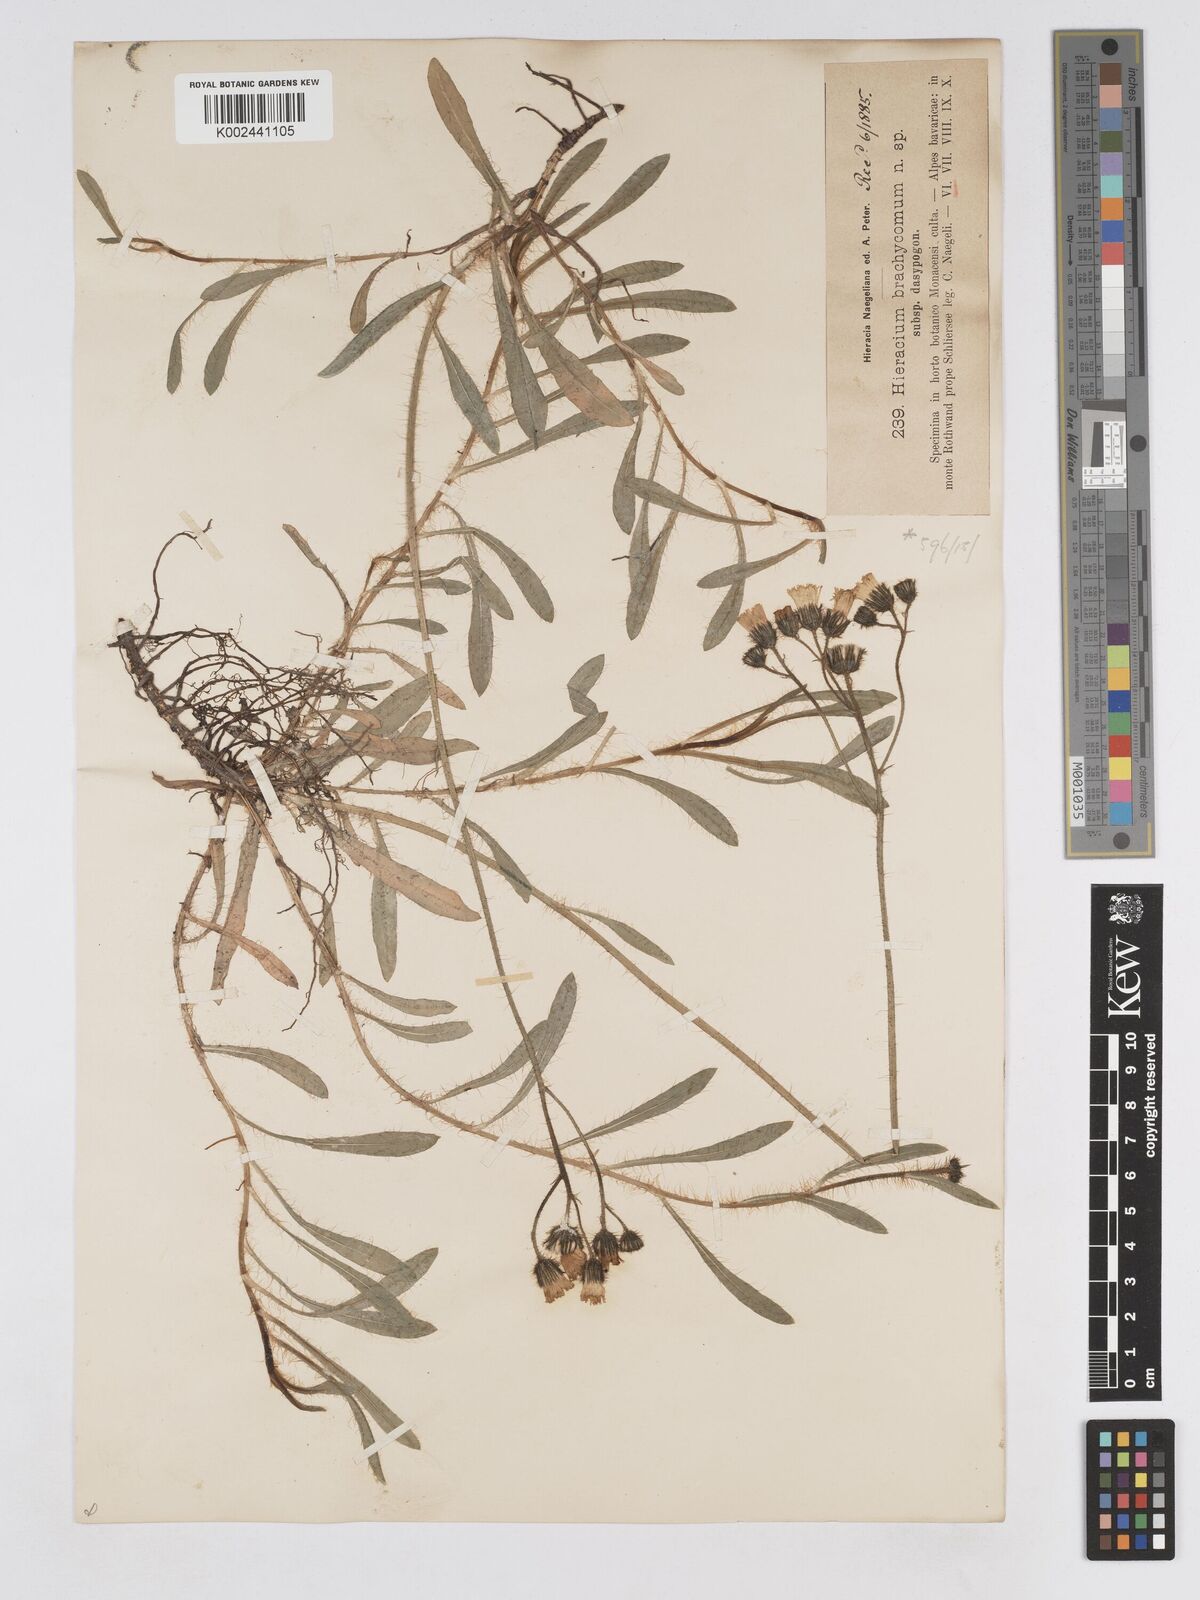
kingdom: Plantae
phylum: Tracheophyta
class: Magnoliopsida
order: Asterales
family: Asteraceae
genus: Pilosella
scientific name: Pilosella brachycoma
